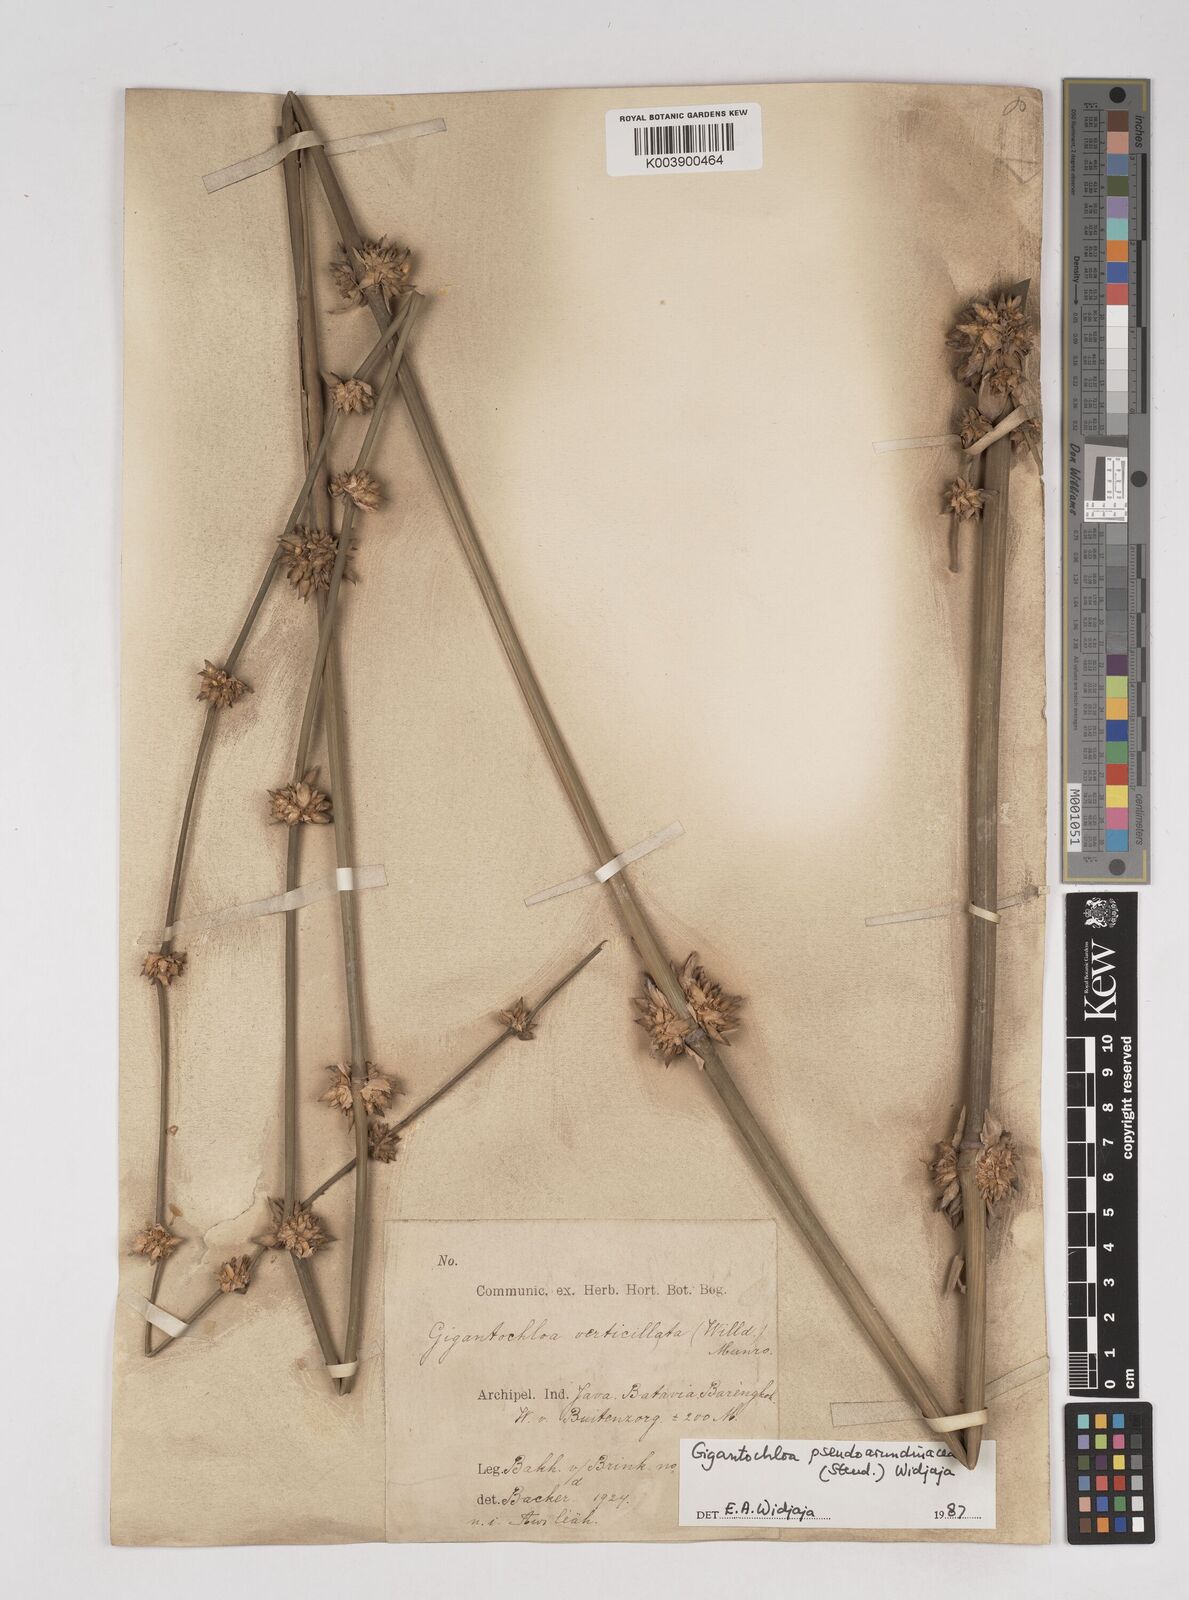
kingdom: Plantae
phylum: Tracheophyta
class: Liliopsida
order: Poales
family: Poaceae
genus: Gigantochloa
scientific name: Gigantochloa verticillata
